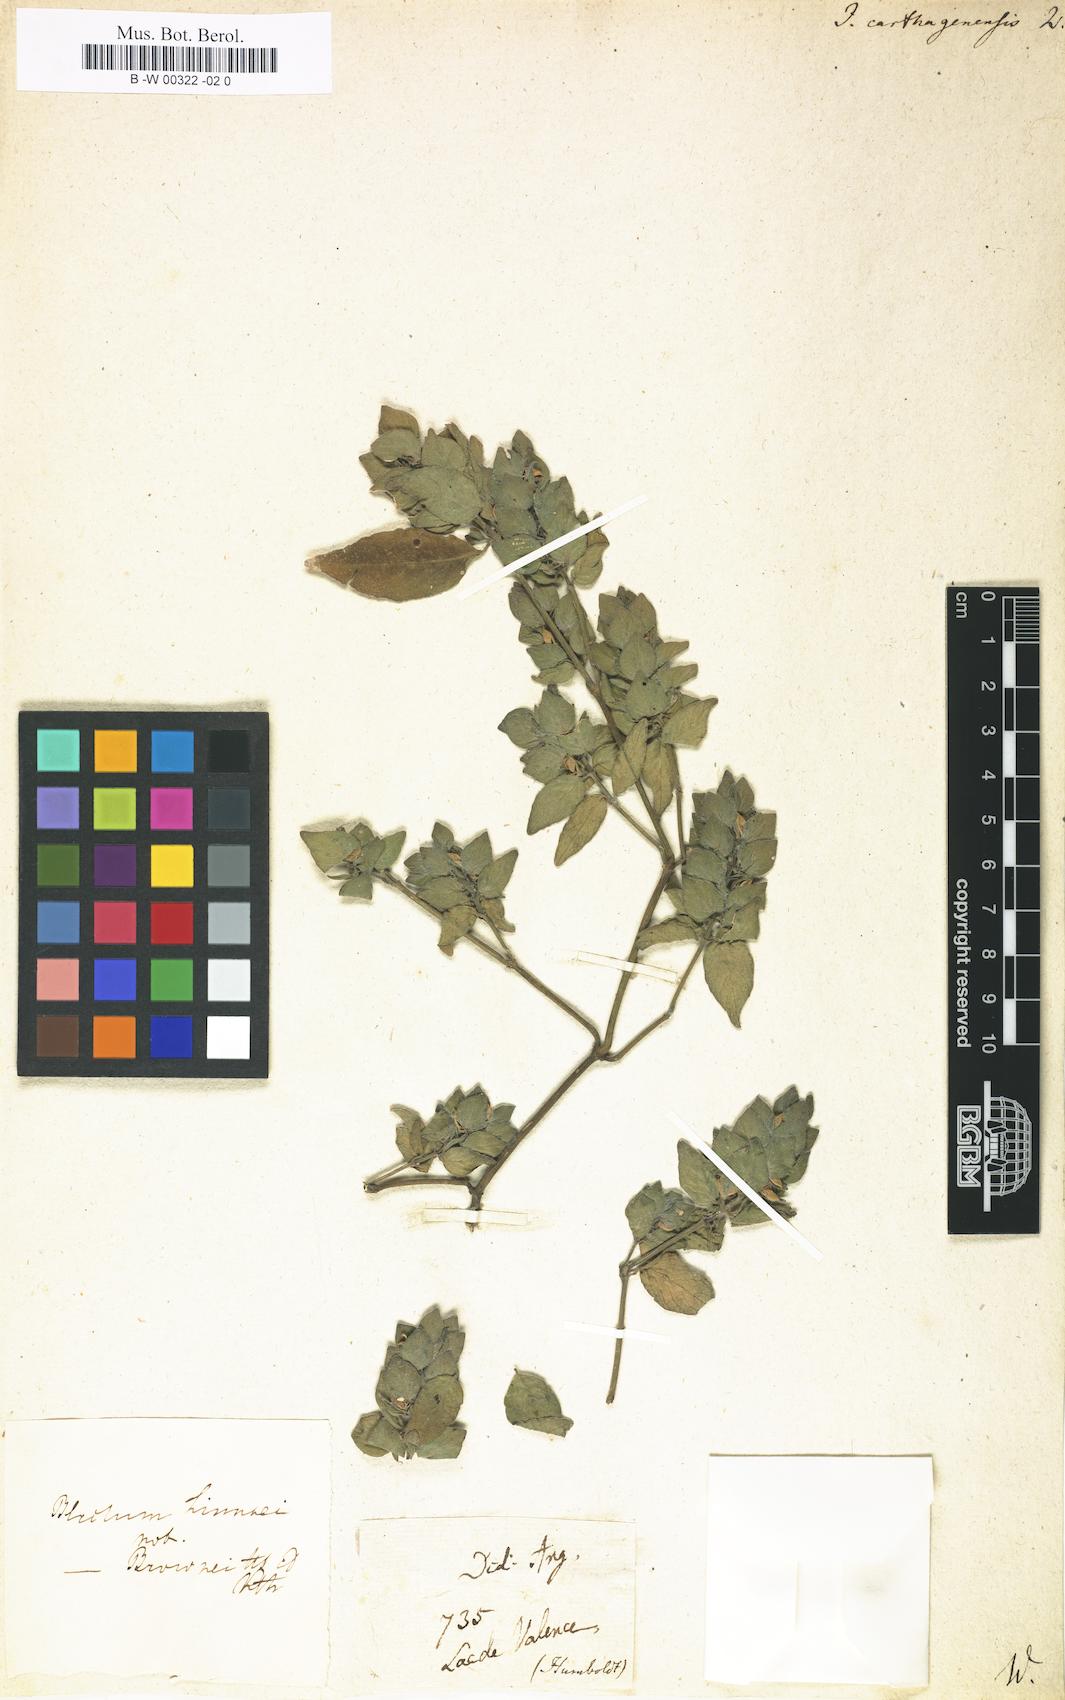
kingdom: Plantae
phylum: Tracheophyta
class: Magnoliopsida
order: Lamiales
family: Acanthaceae
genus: Justicia
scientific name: Justicia carthaginensis
